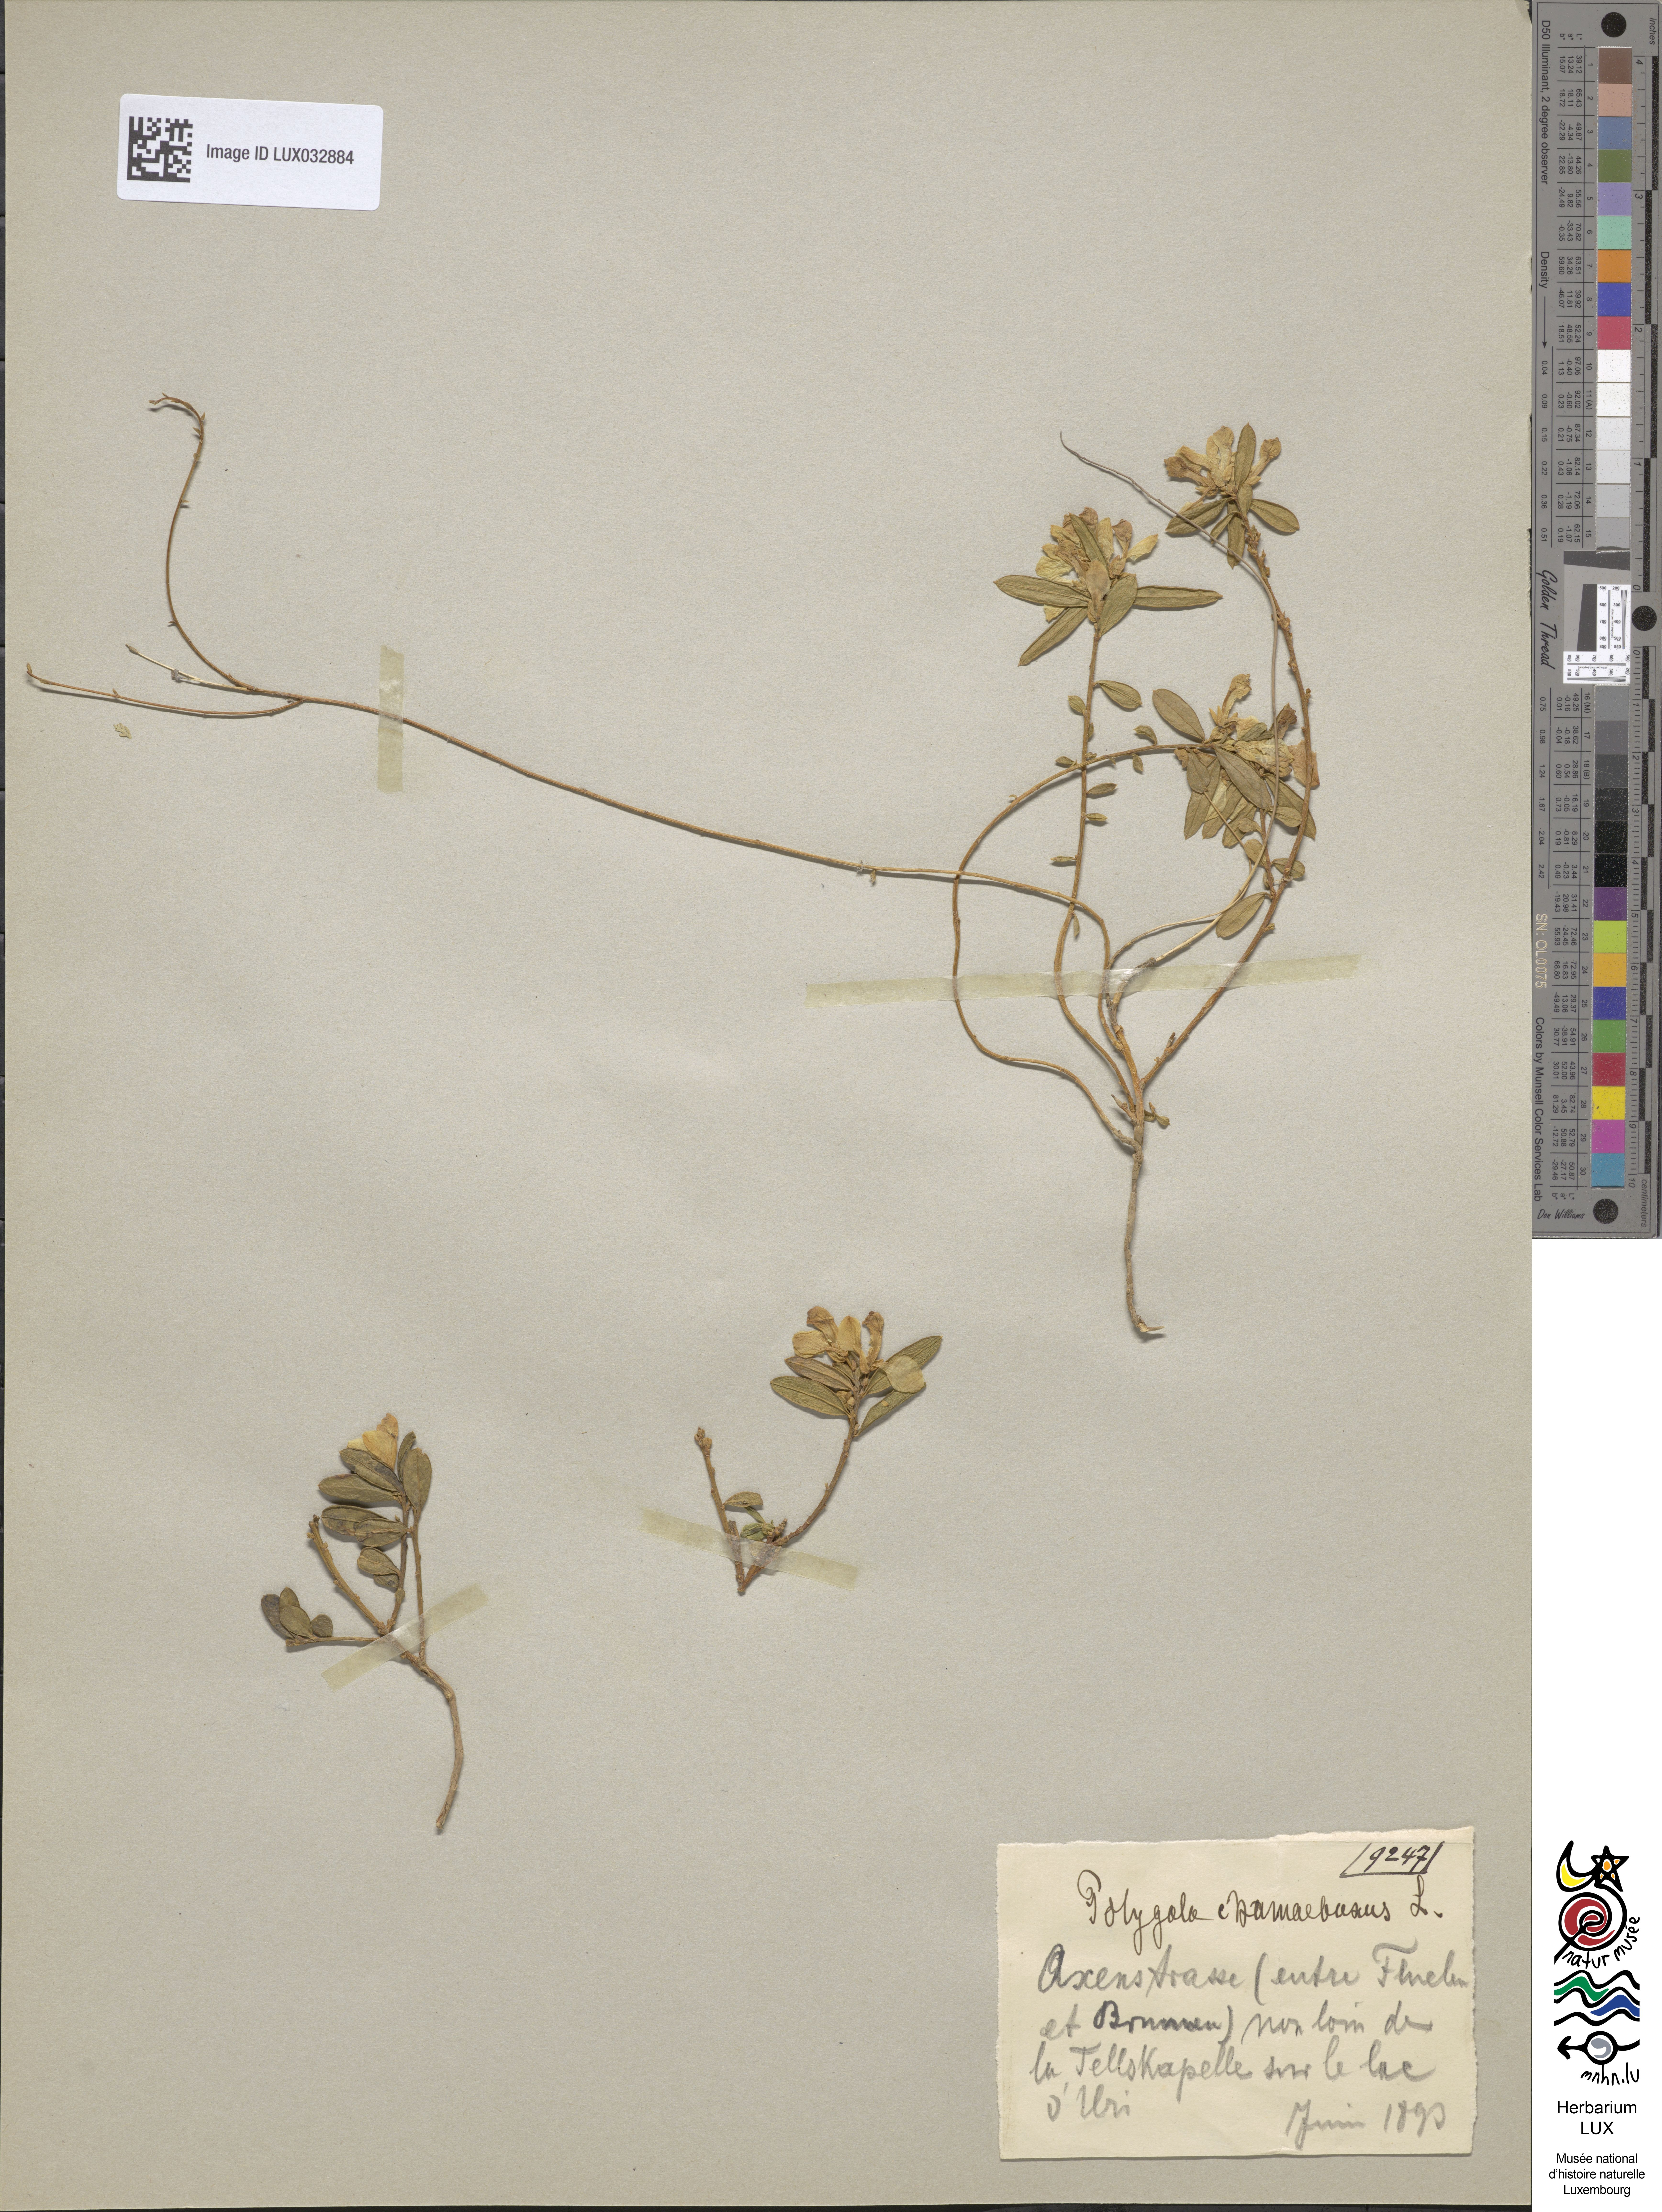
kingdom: Plantae
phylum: Tracheophyta
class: Magnoliopsida
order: Fabales
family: Polygalaceae
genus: Polygaloides
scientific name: Polygaloides chamaebuxus
